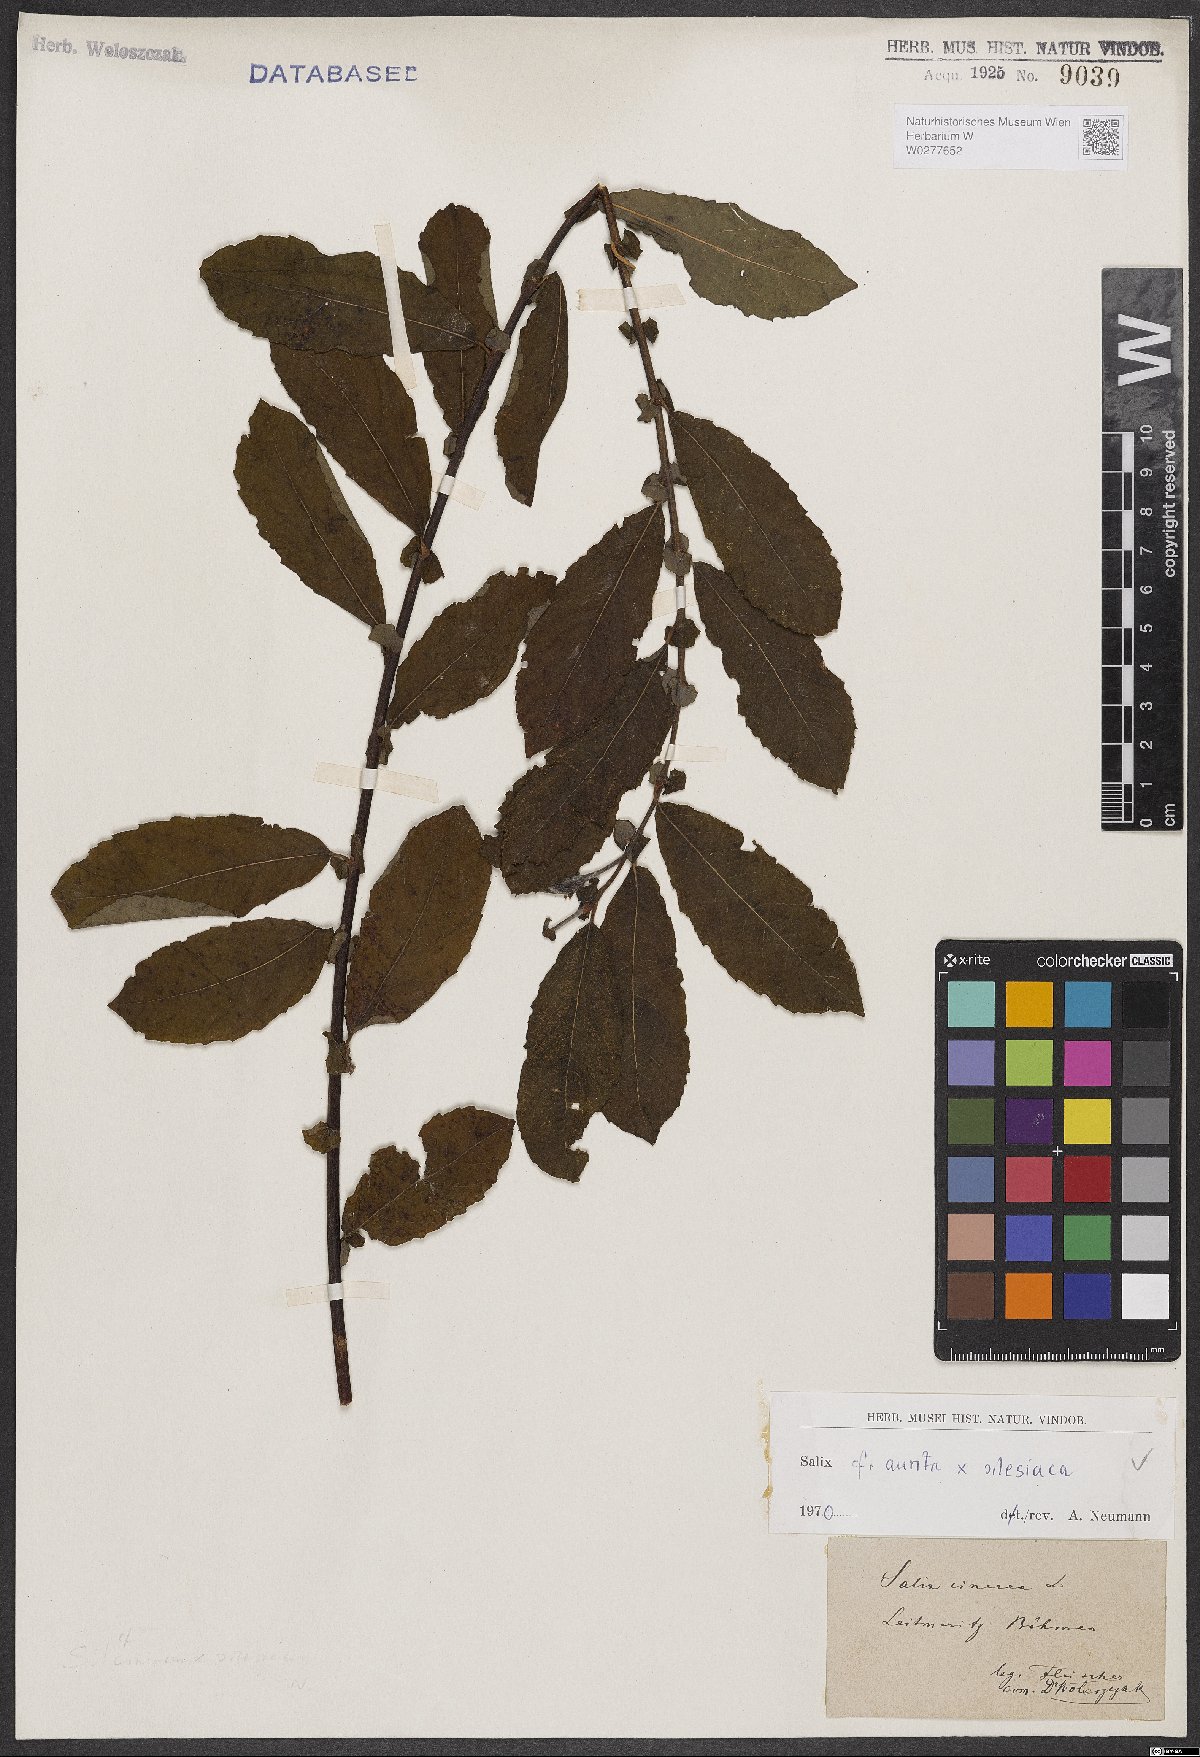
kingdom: Plantae
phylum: Tracheophyta
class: Magnoliopsida
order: Malpighiales
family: Salicaceae
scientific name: Salicaceae
